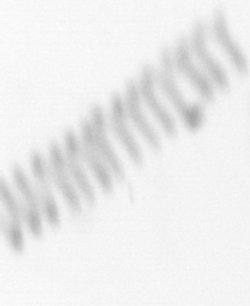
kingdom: Chromista
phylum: Ochrophyta
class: Bacillariophyceae
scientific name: Bacillariophyceae
